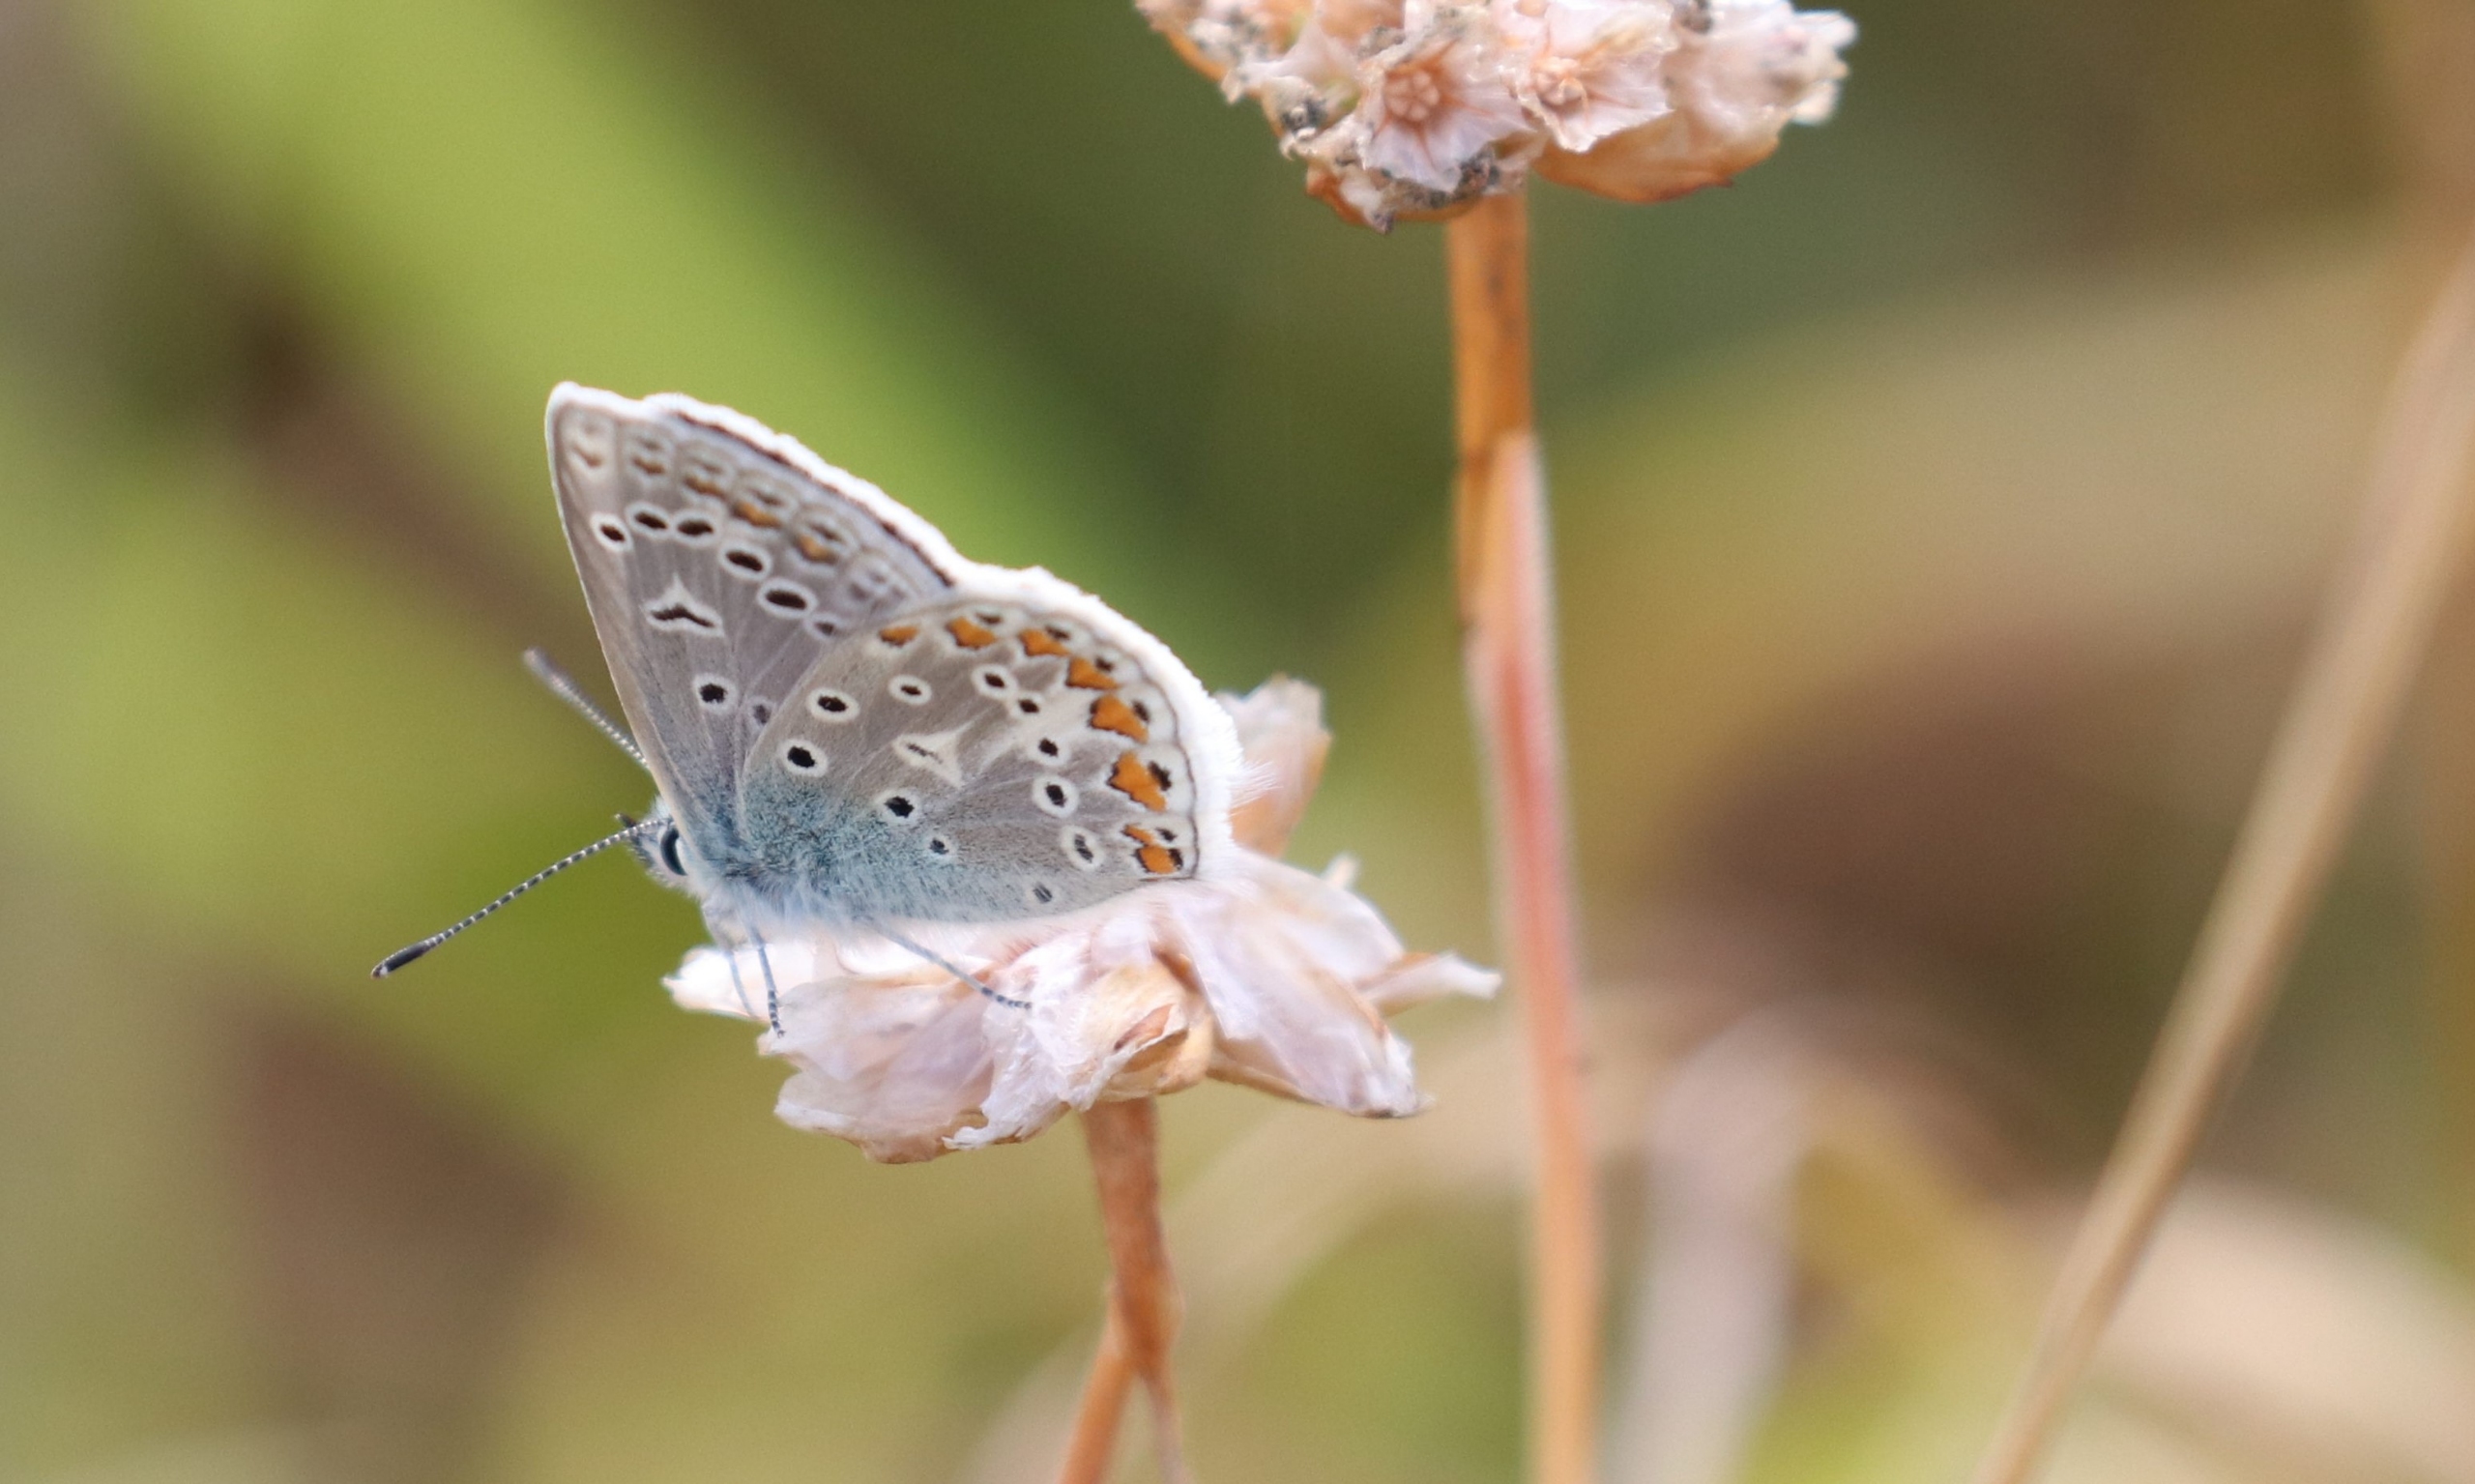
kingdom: Animalia
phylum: Arthropoda
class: Insecta
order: Lepidoptera
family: Lycaenidae
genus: Polyommatus
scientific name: Polyommatus icarus
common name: Almindelig blåfugl
